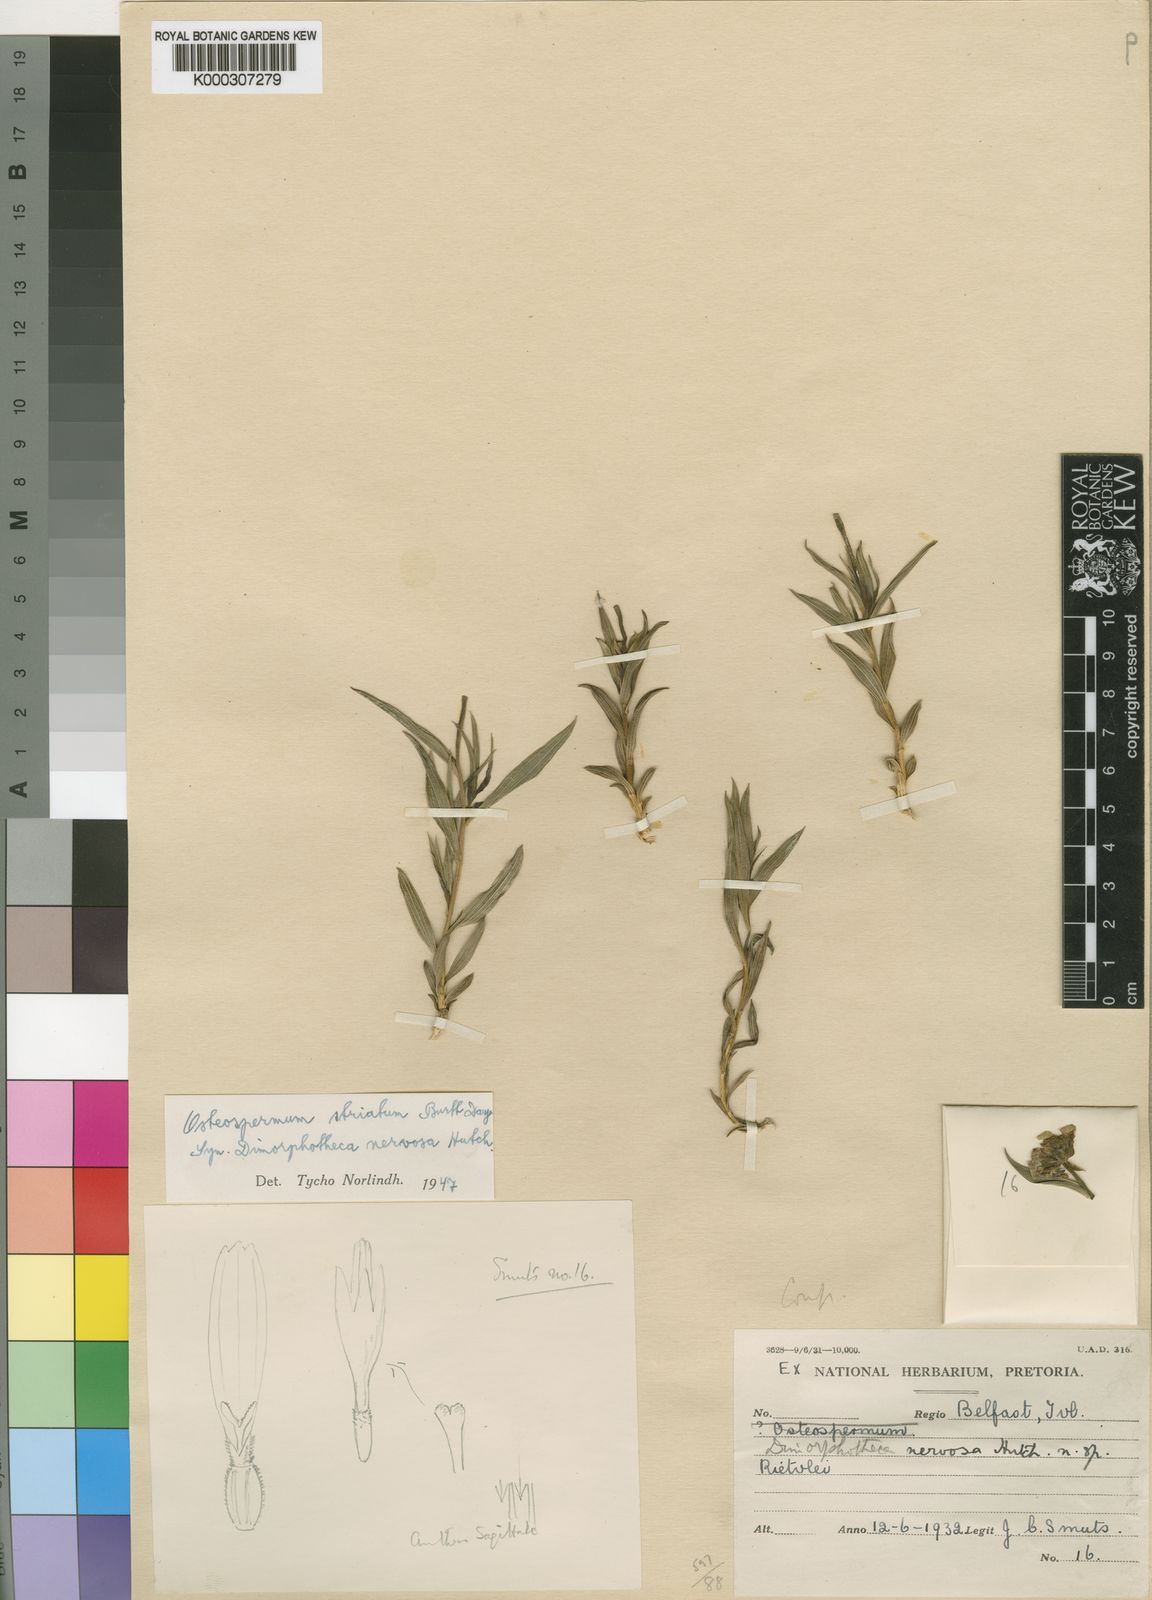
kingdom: Plantae
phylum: Tracheophyta
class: Magnoliopsida
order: Asterales
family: Asteraceae
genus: Osteospermum
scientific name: Osteospermum striatum
